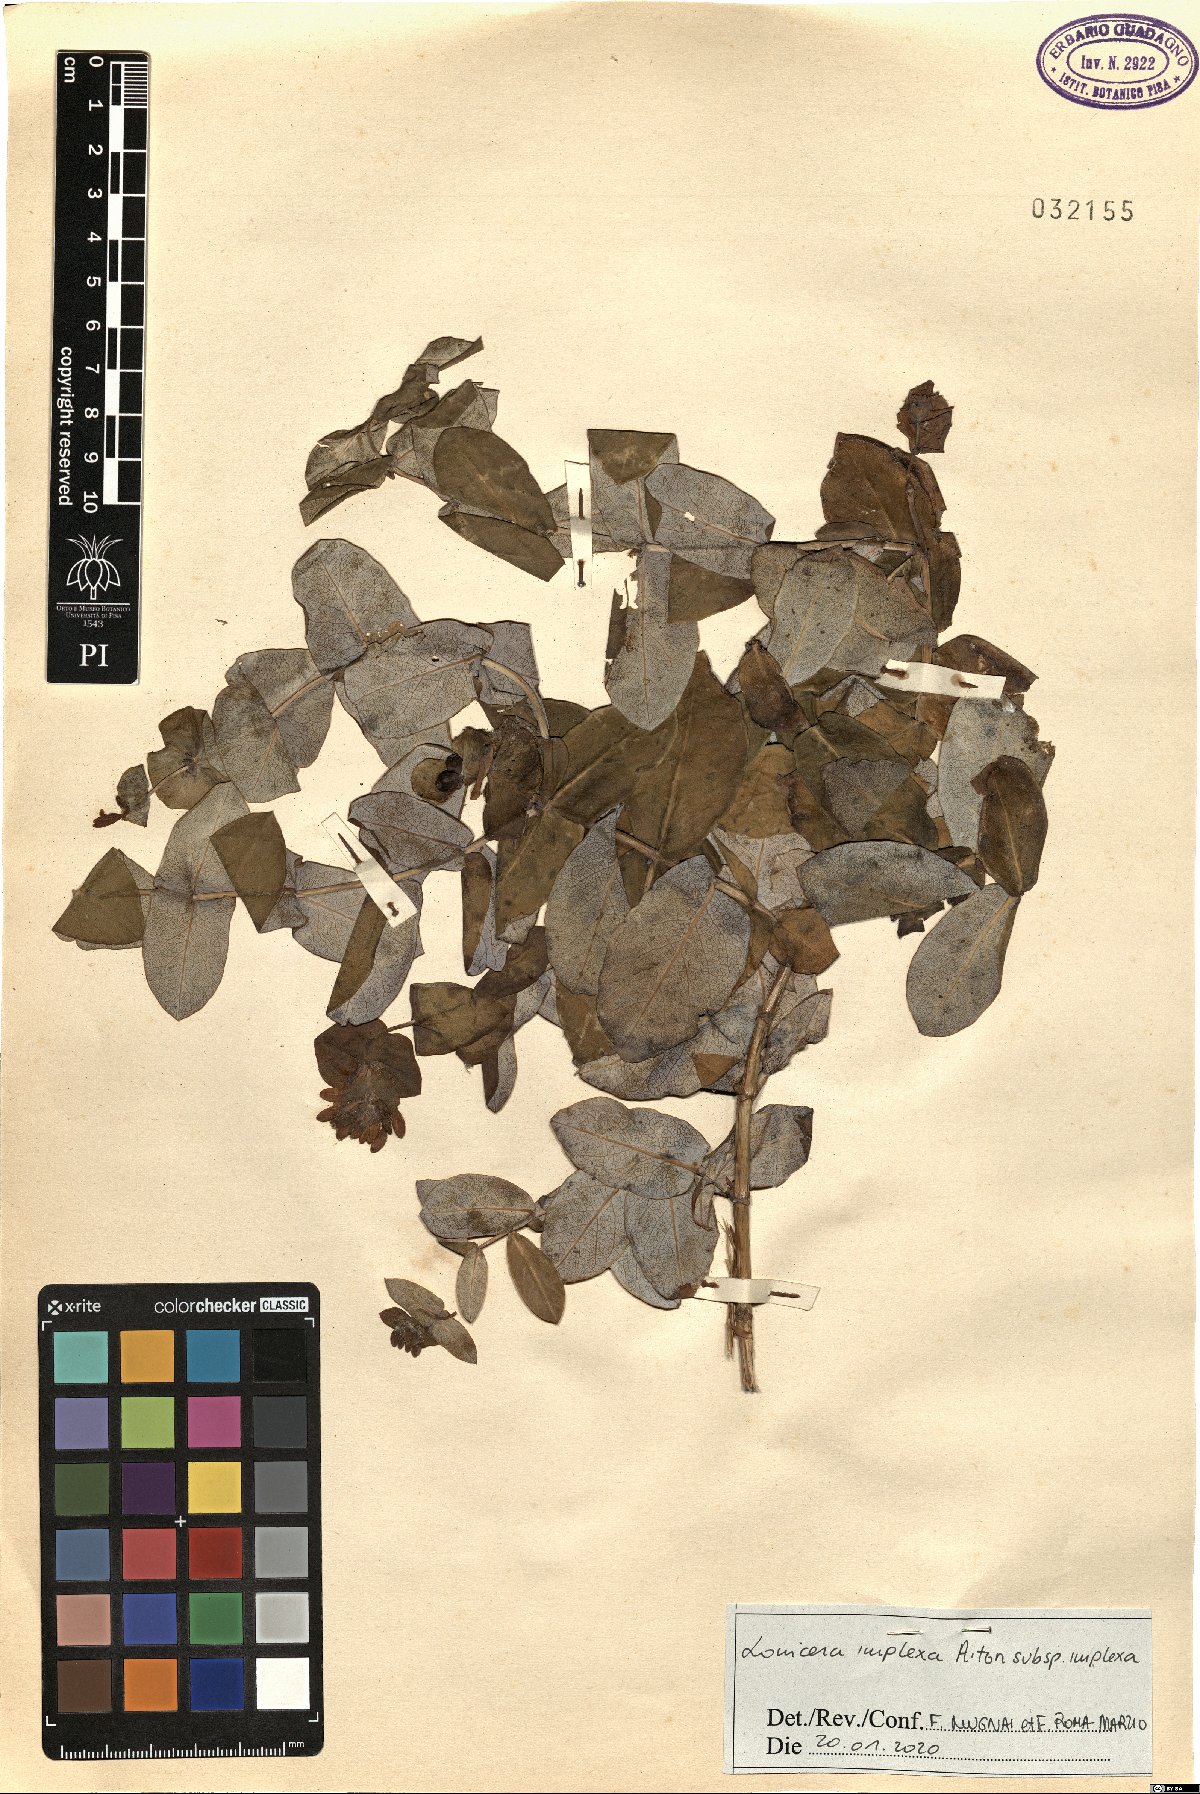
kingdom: Plantae
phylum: Tracheophyta
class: Magnoliopsida
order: Dipsacales
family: Caprifoliaceae
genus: Lonicera
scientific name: Lonicera implexa
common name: Minorca honeysuckle
